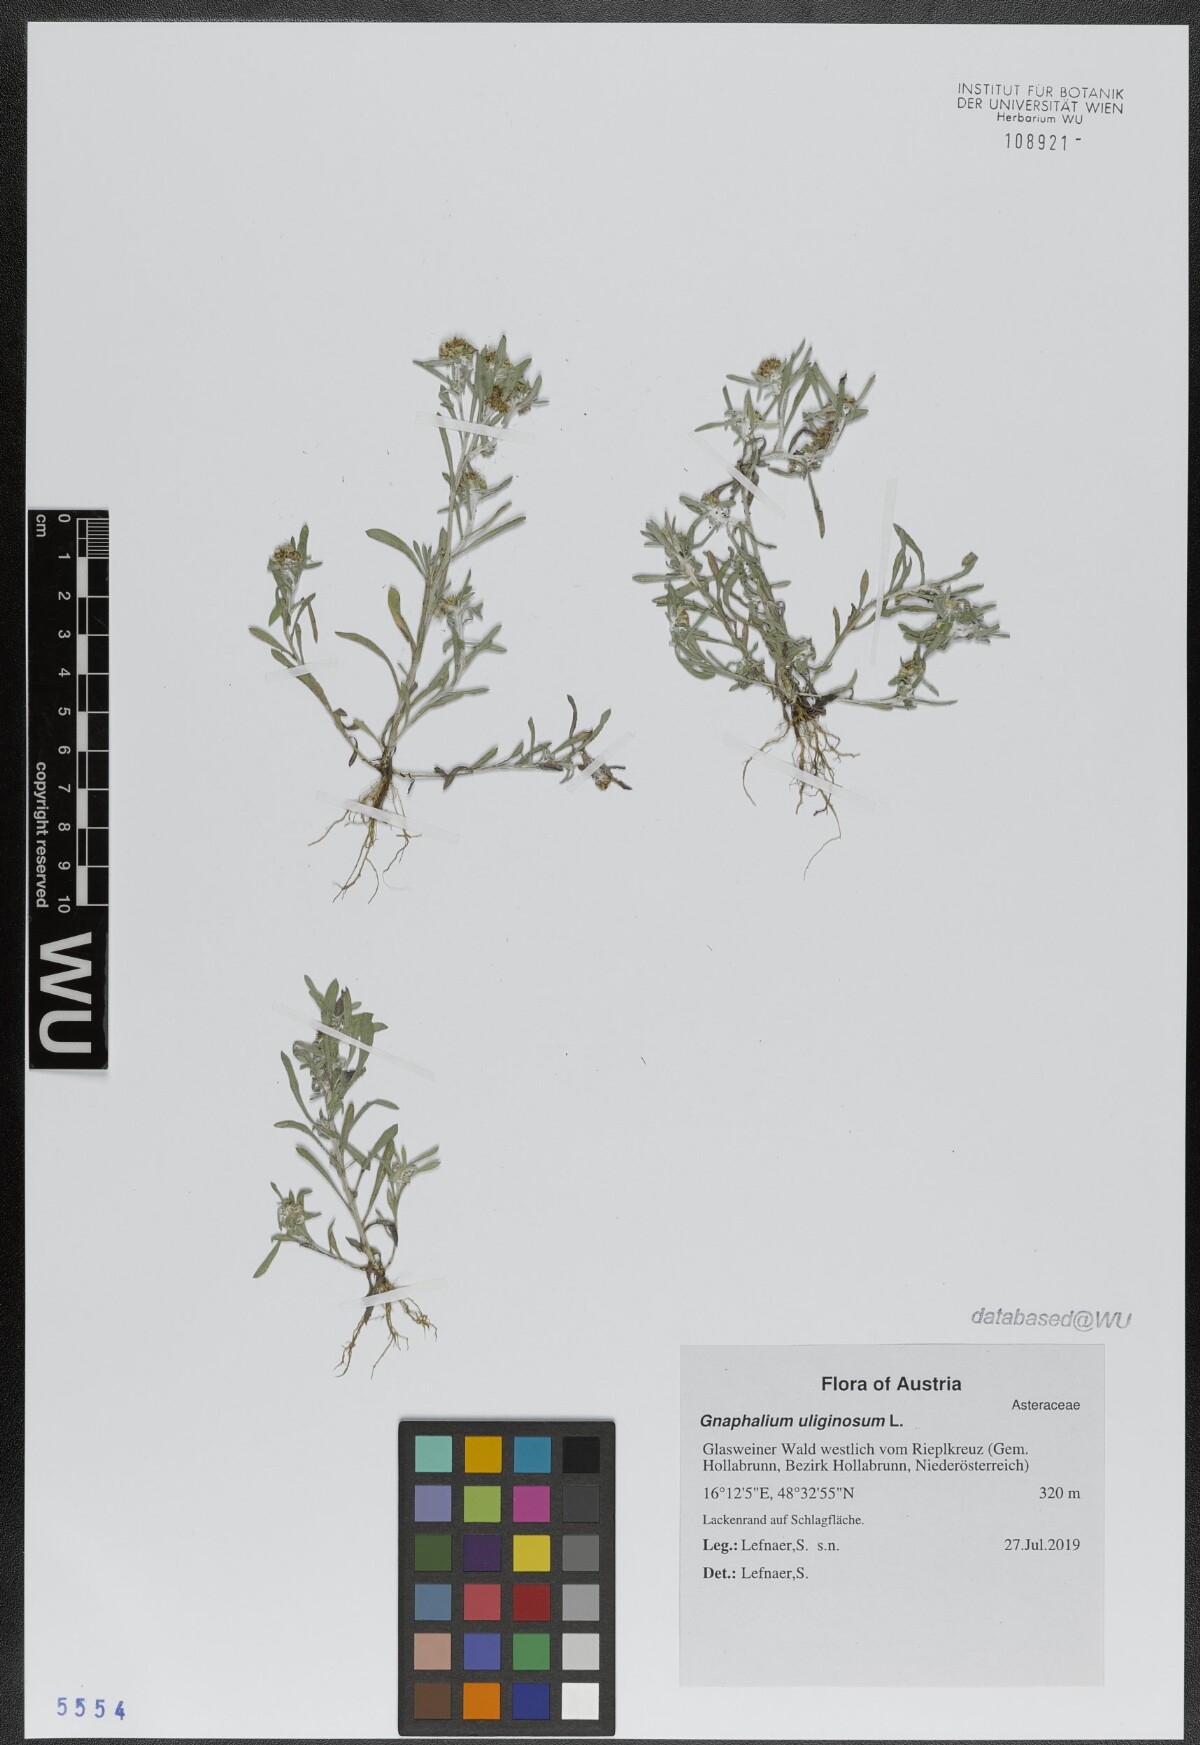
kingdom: Plantae
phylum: Tracheophyta
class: Magnoliopsida
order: Asterales
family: Asteraceae
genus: Gnaphalium
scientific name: Gnaphalium uliginosum
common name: Marsh cudweed
